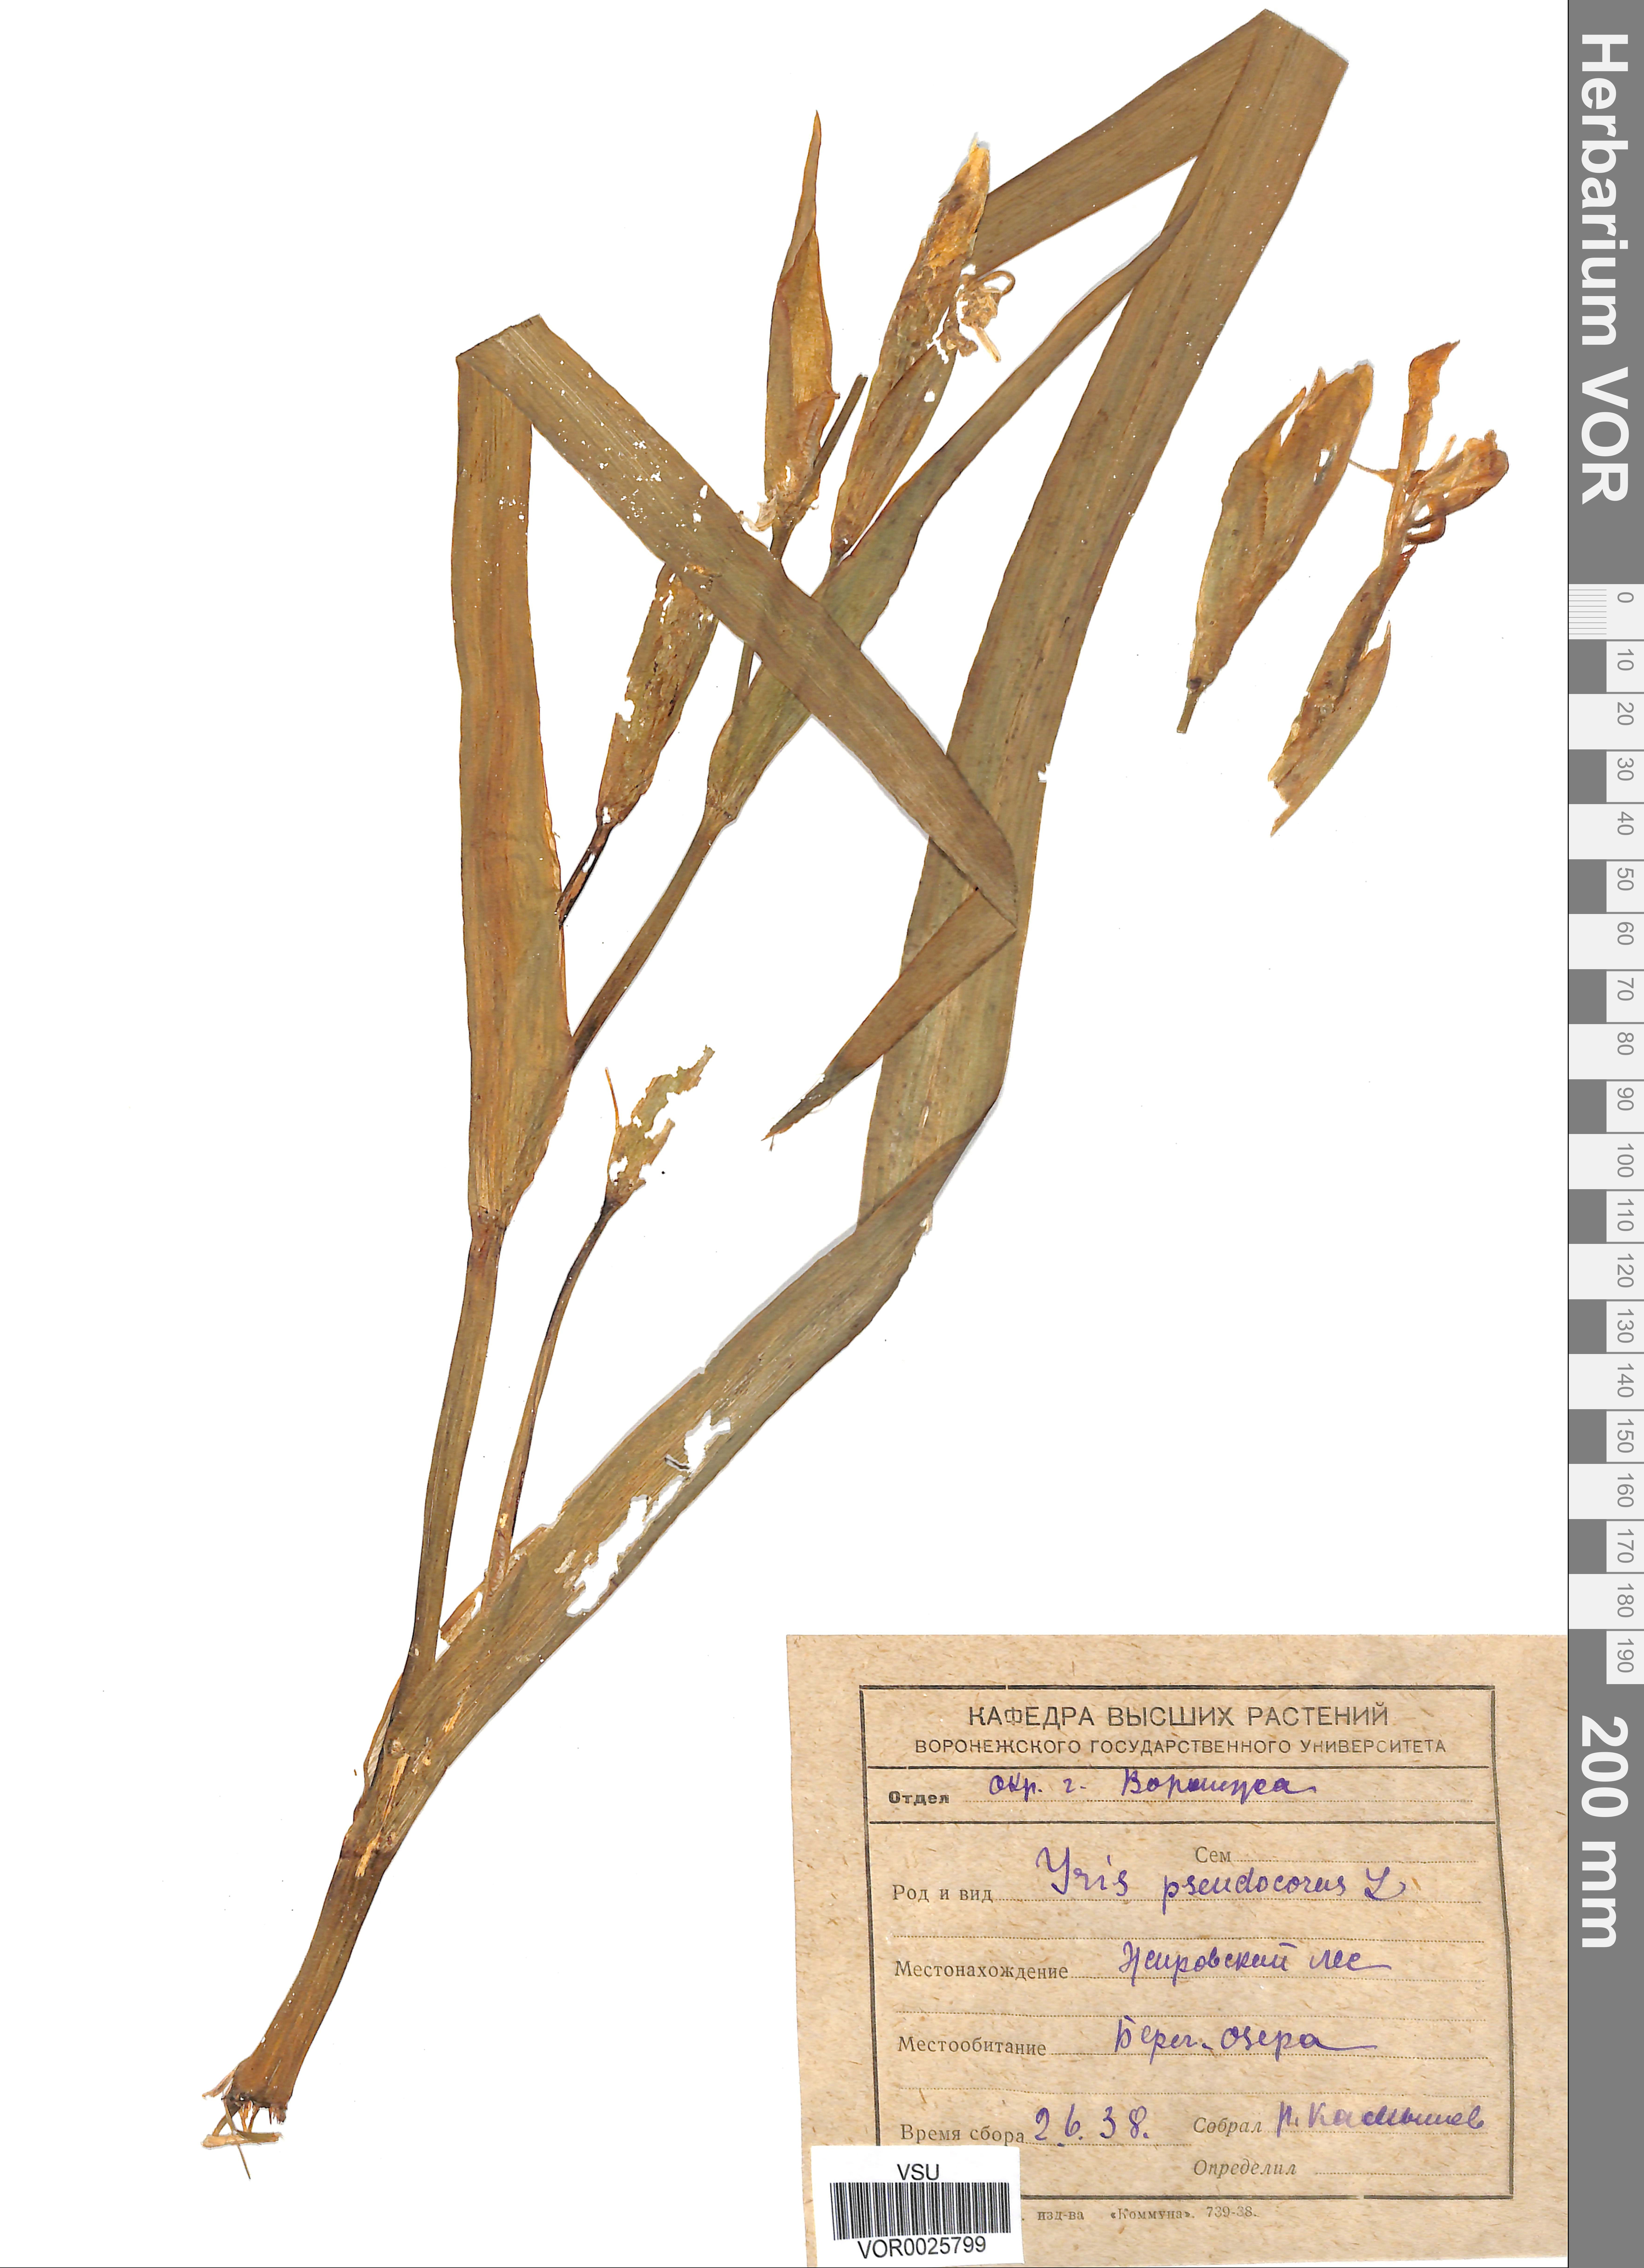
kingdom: Plantae
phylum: Tracheophyta
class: Liliopsida
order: Asparagales
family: Iridaceae
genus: Iris
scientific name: Iris pseudacorus
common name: Yellow flag
